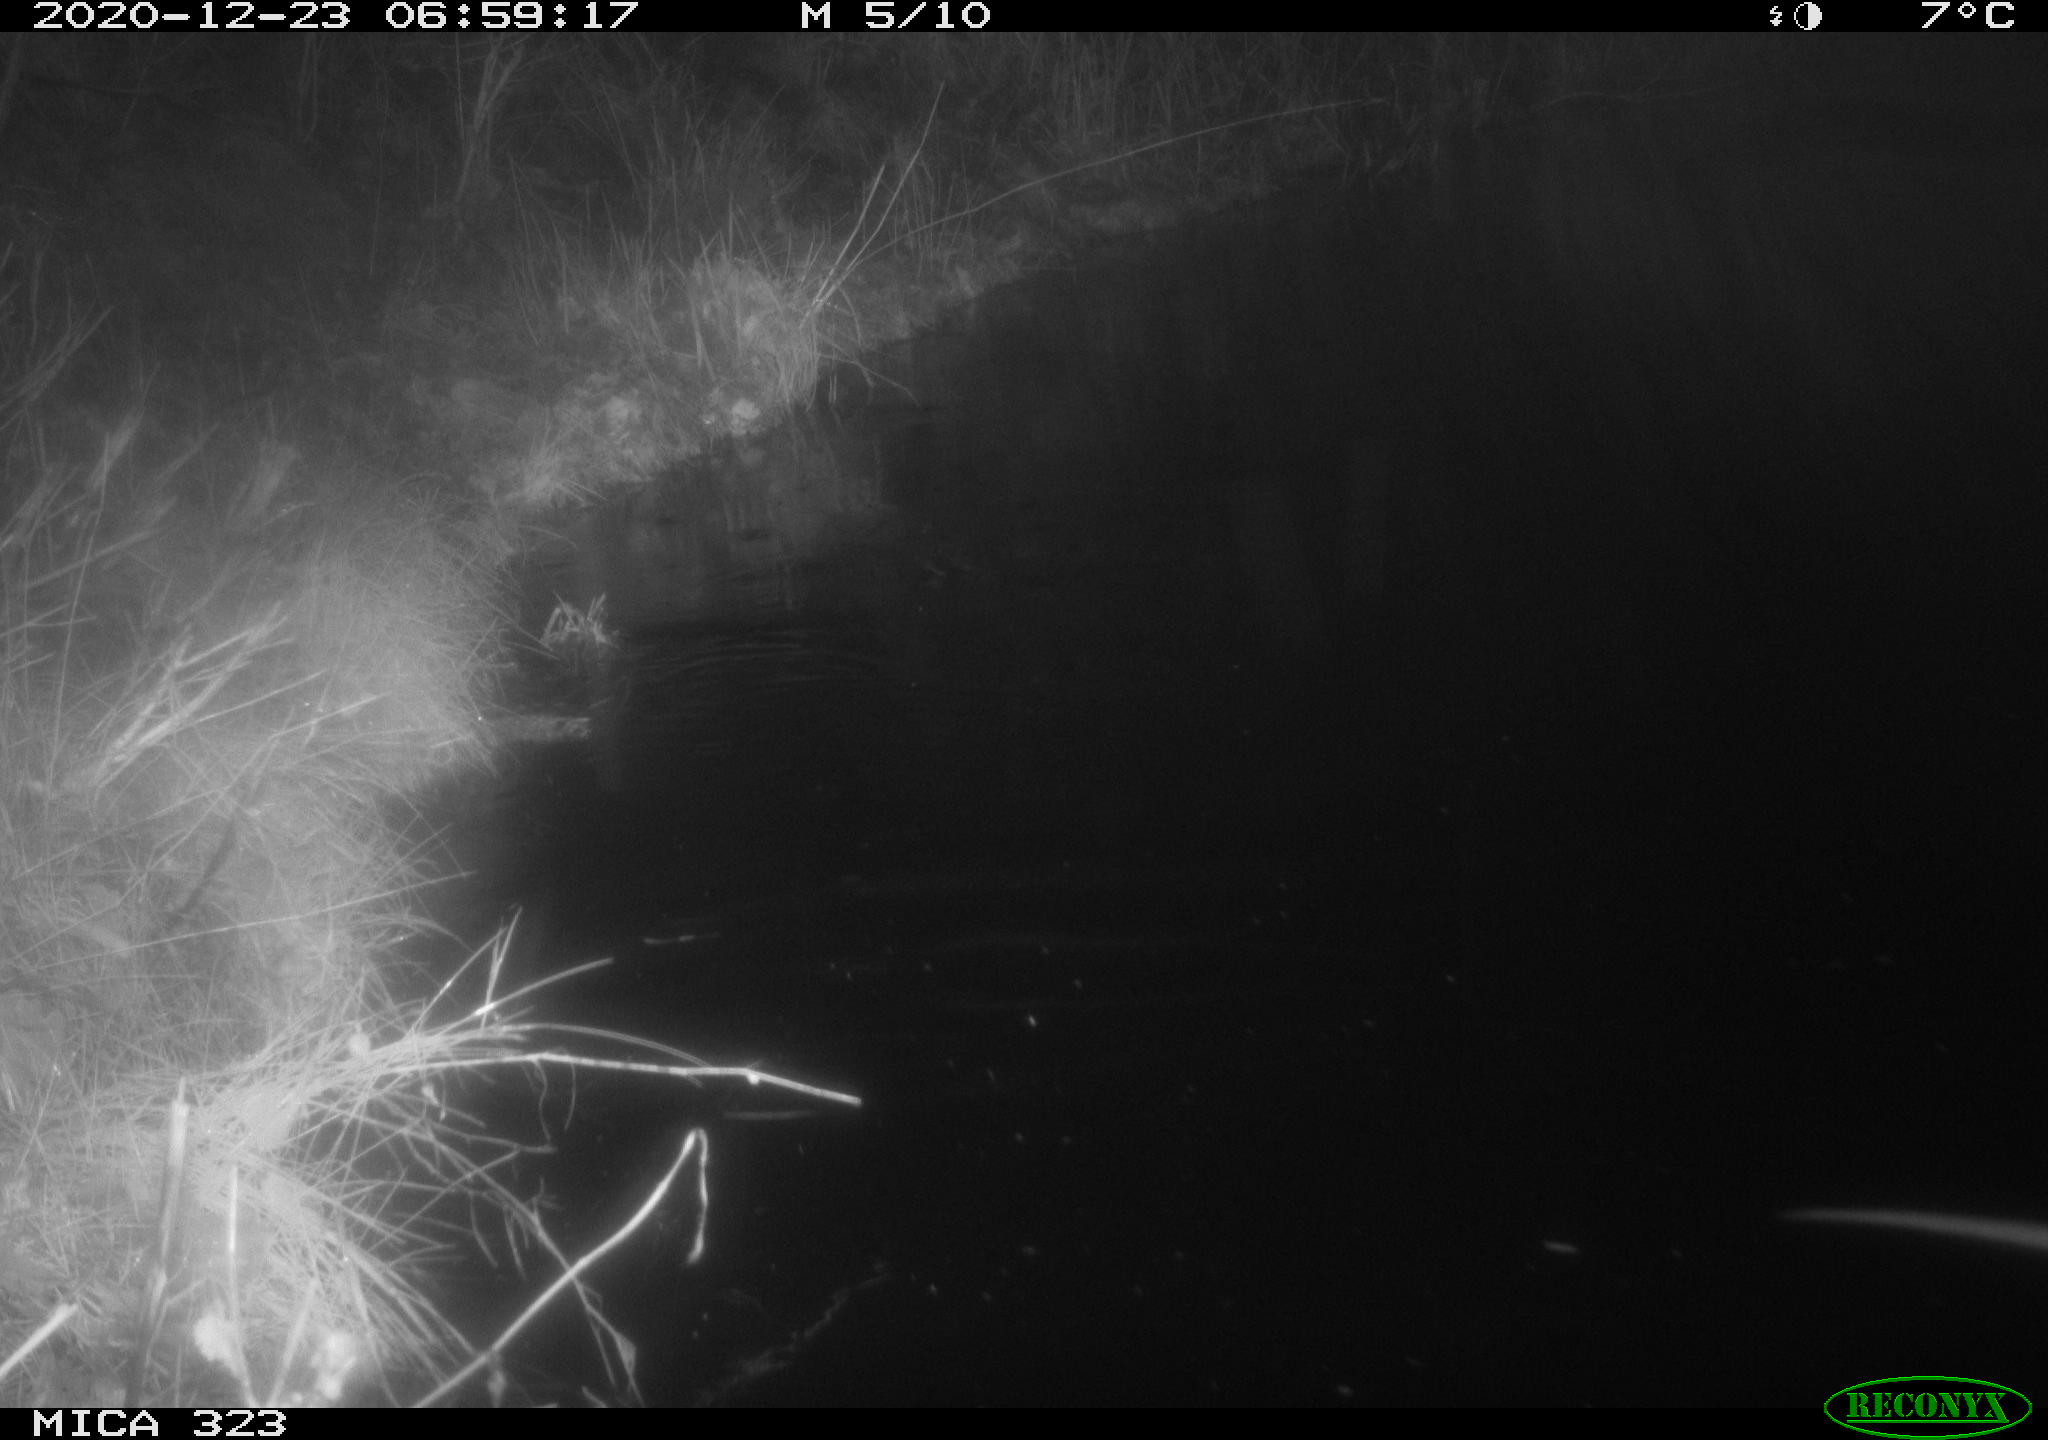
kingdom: Animalia
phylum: Chordata
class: Mammalia
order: Rodentia
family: Myocastoridae
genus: Myocastor
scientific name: Myocastor coypus
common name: Coypu
